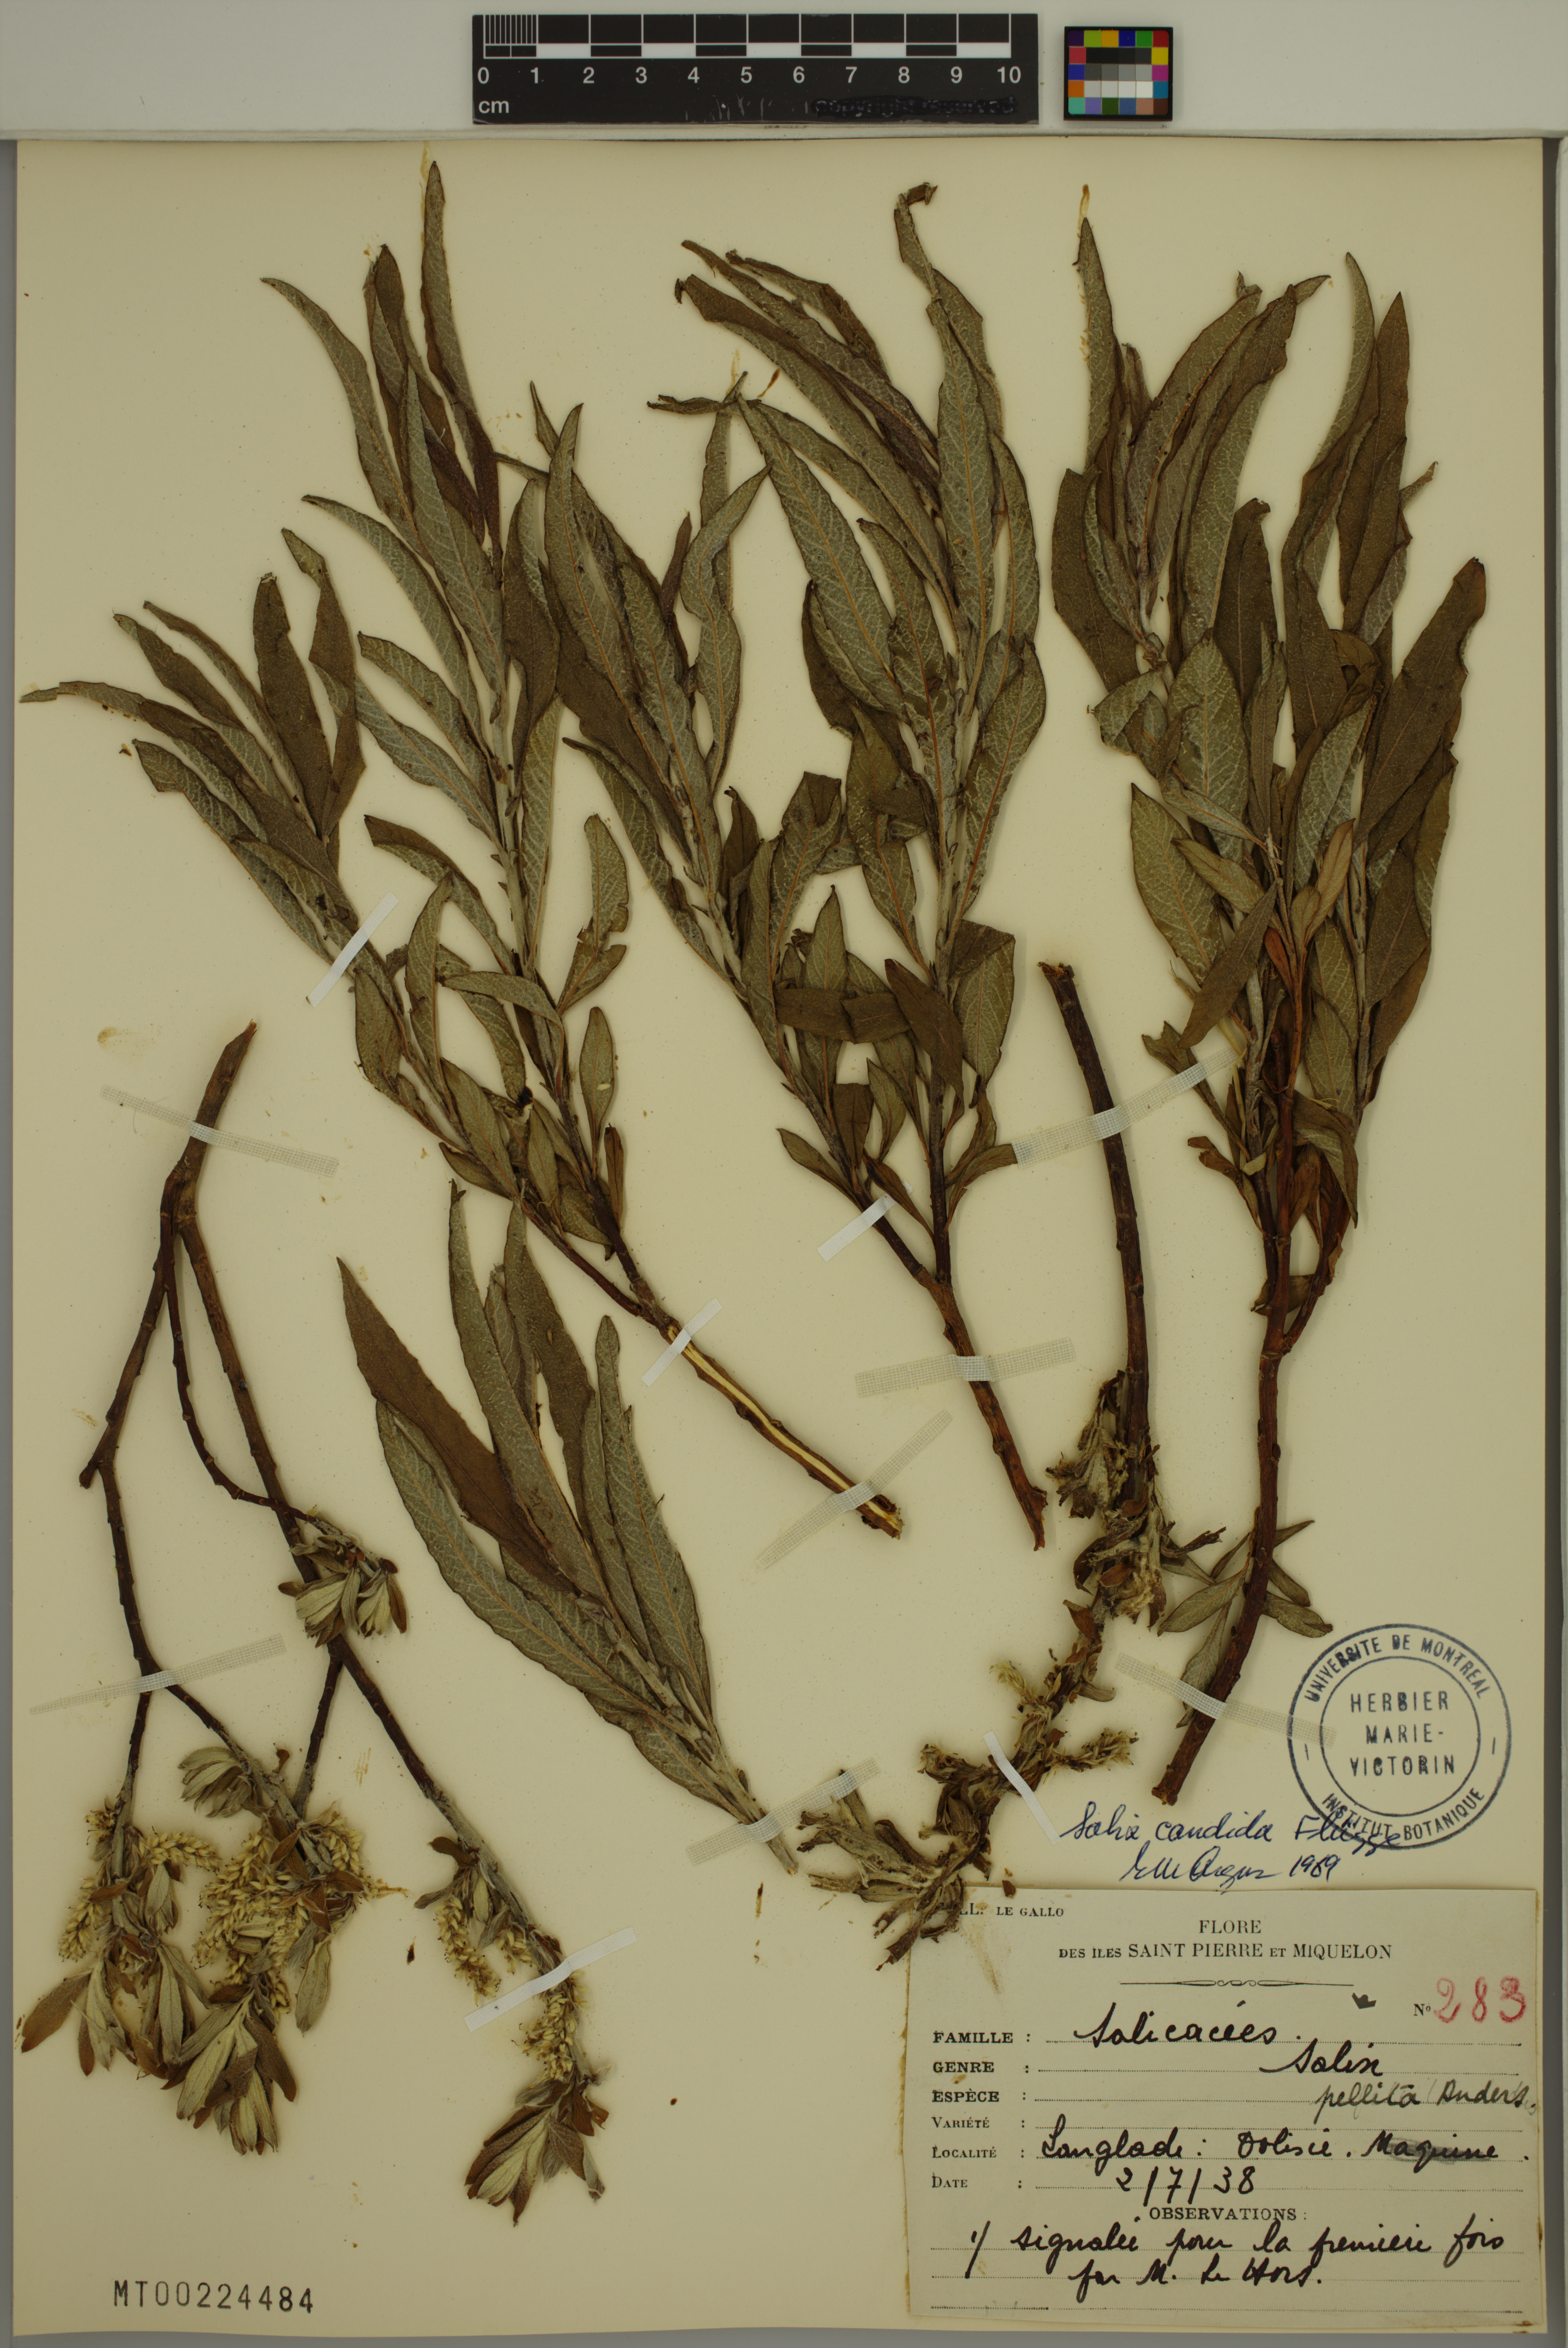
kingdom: Plantae
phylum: Tracheophyta
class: Magnoliopsida
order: Malpighiales
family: Salicaceae
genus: Salix
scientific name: Salix candida
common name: Hoary willow
